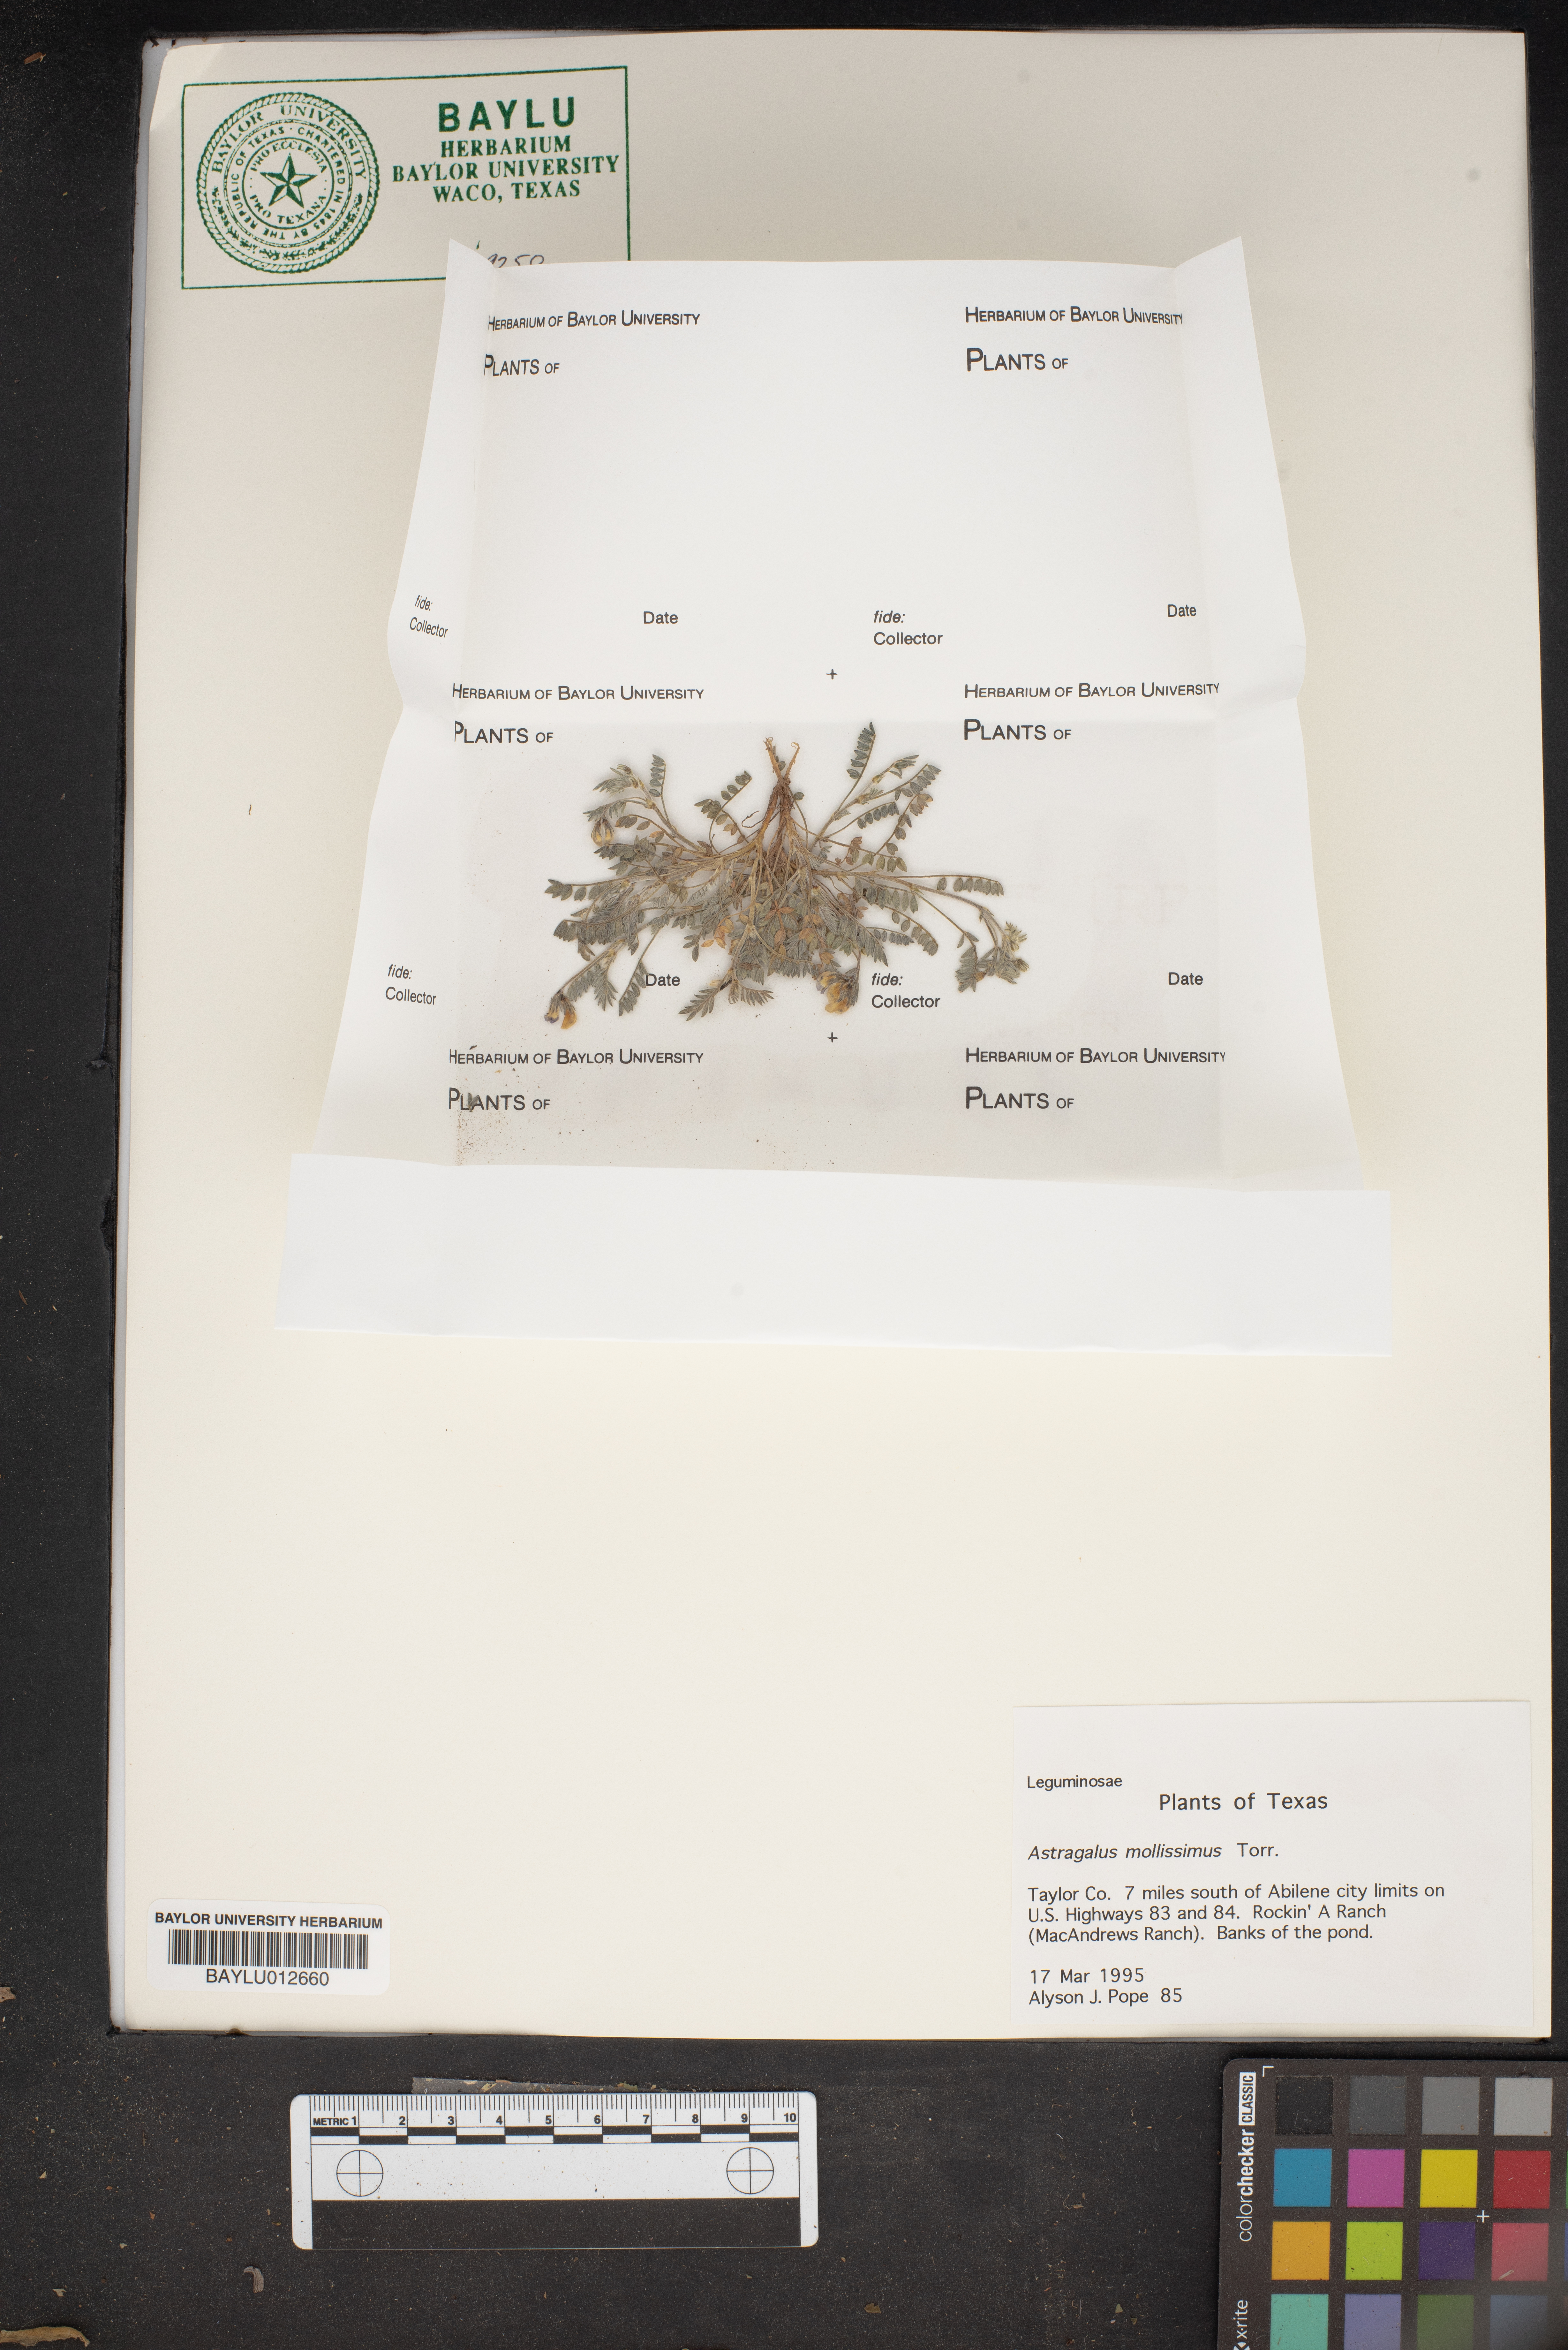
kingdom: Plantae
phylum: Tracheophyta
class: Magnoliopsida
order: Fabales
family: Fabaceae
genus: Astragalus
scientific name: Astragalus mollissimus
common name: Woolly locoweed
